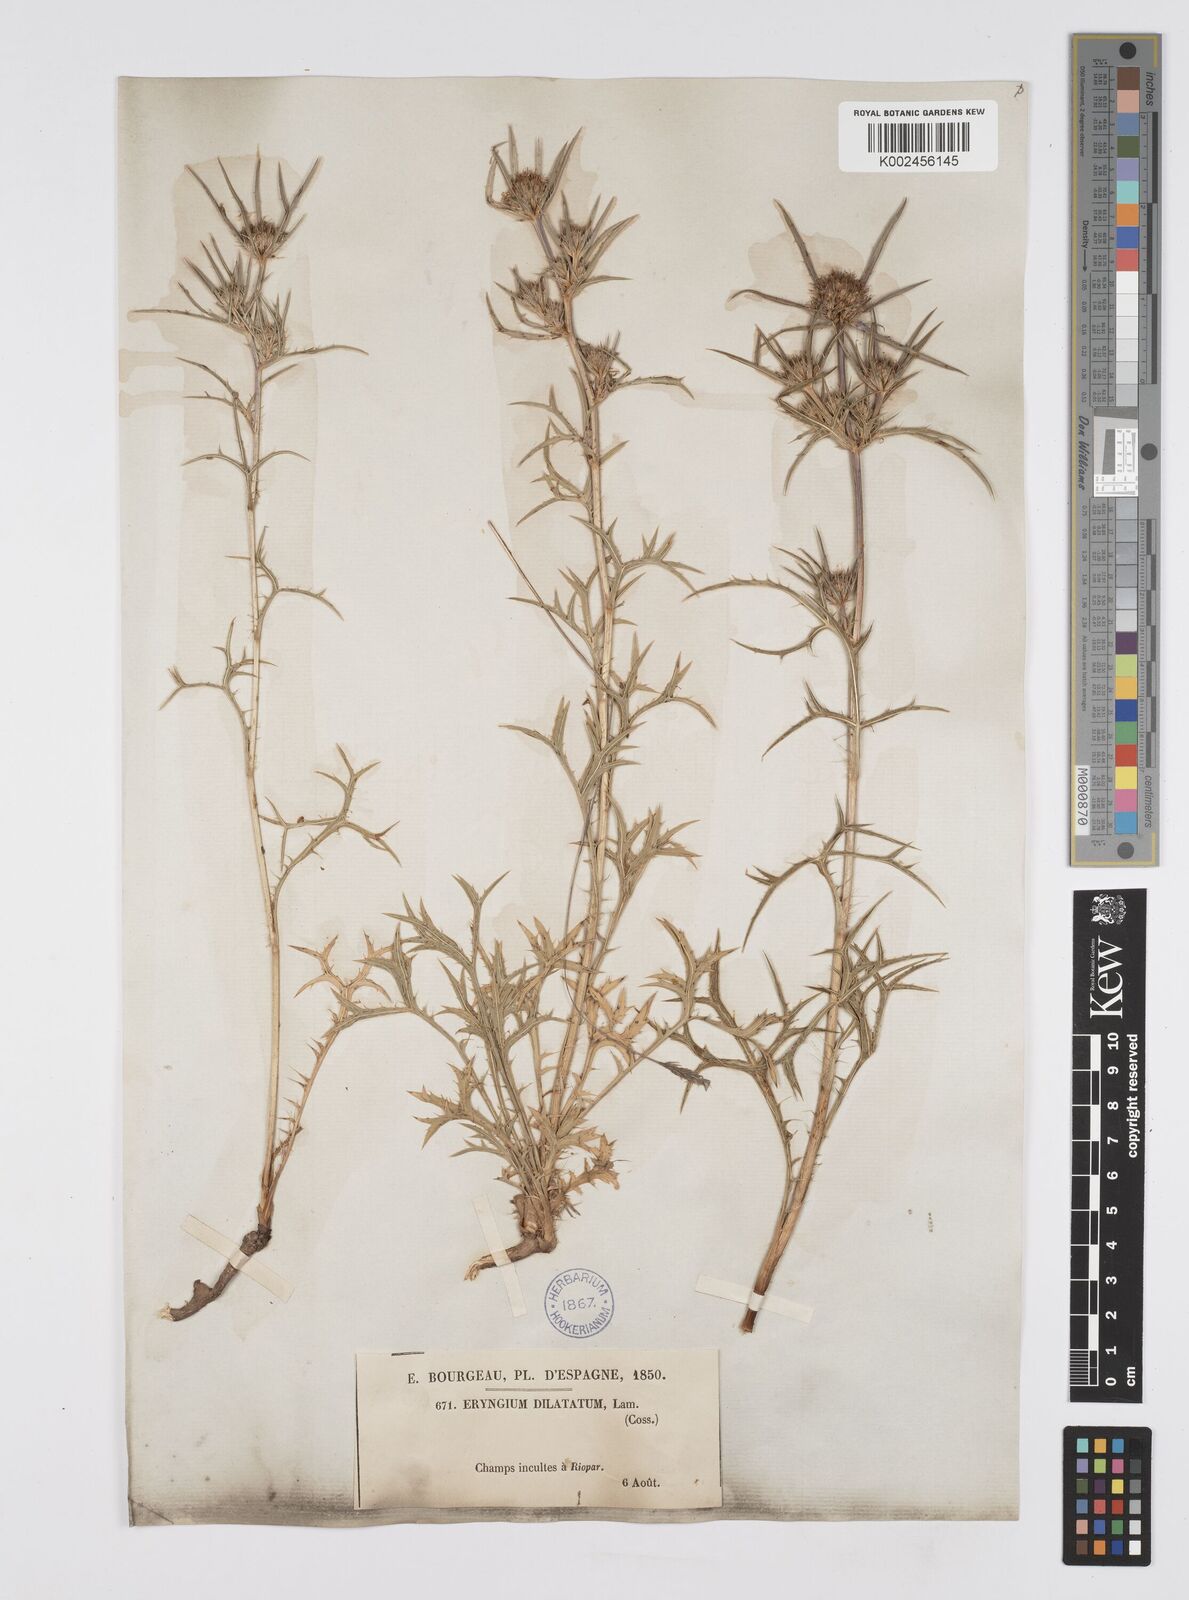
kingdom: Plantae
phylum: Tracheophyta
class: Magnoliopsida
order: Apiales
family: Apiaceae
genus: Eryngium
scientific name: Eryngium dilatatum
